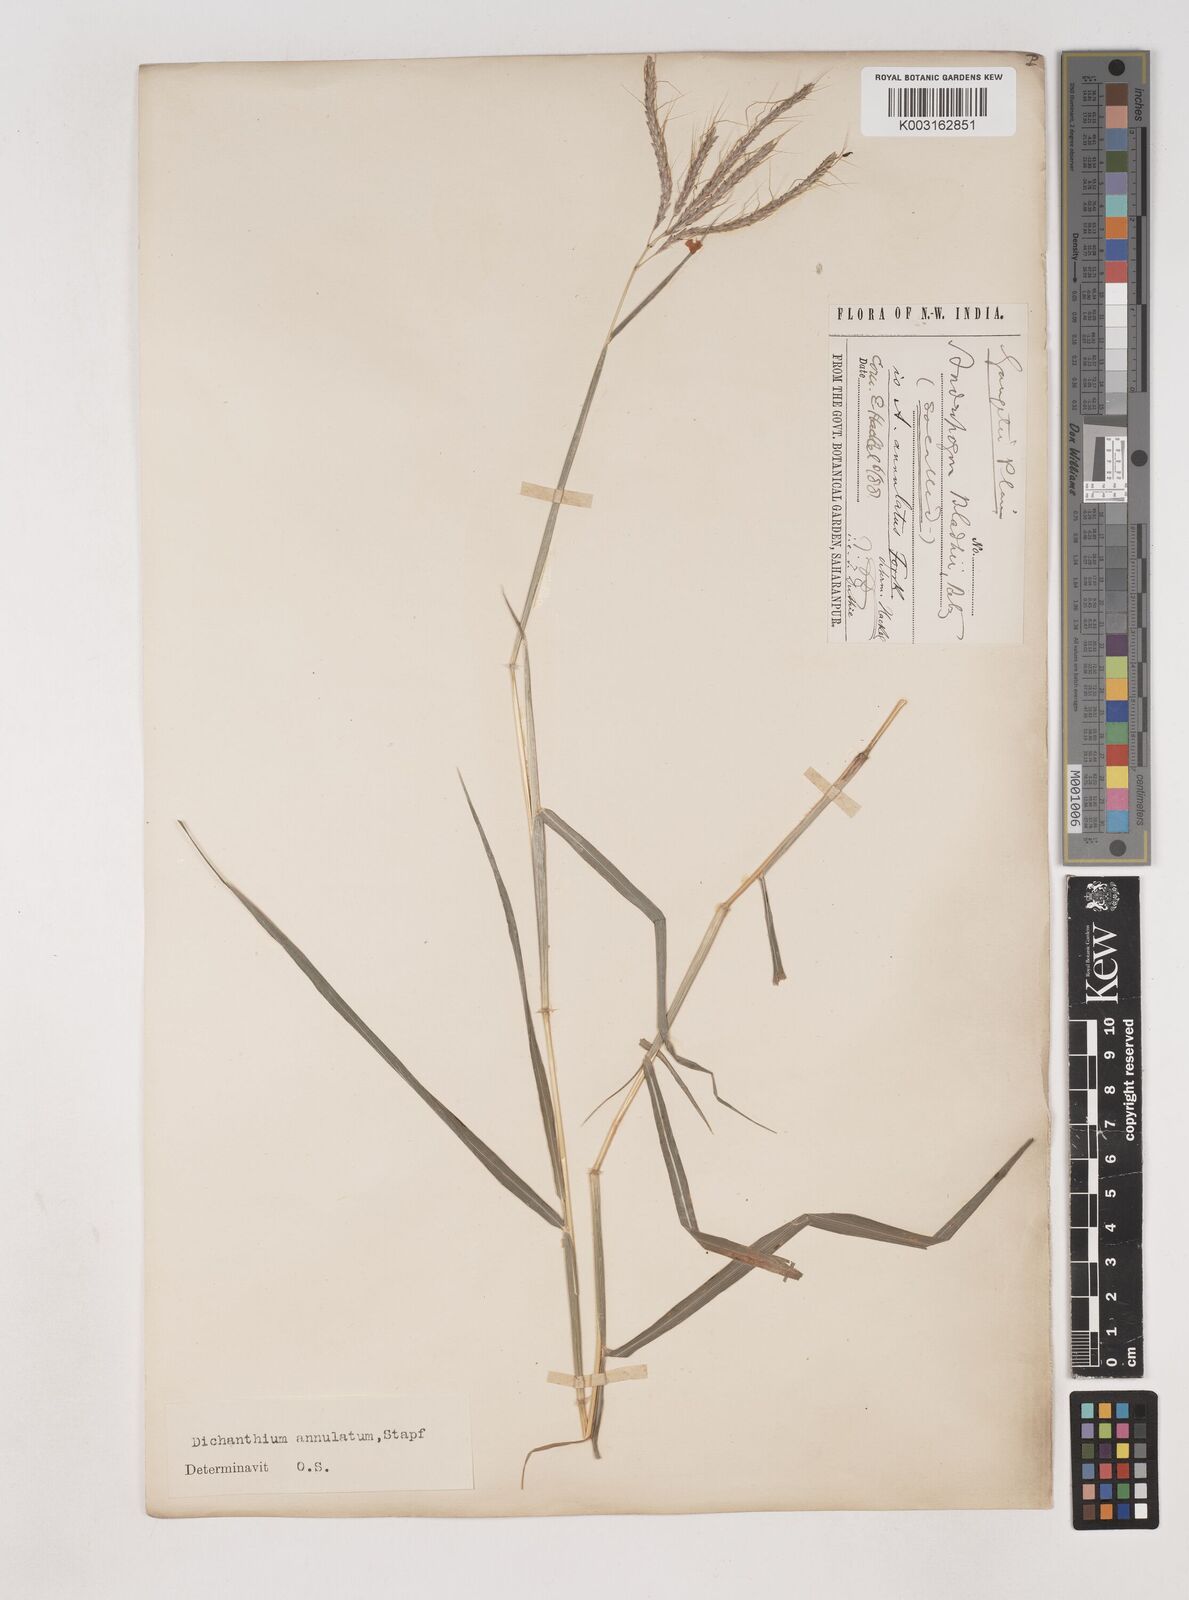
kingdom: Plantae
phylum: Tracheophyta
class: Liliopsida
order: Poales
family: Poaceae
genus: Dichanthium
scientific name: Dichanthium annulatum
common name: Kleberg's bluestem
